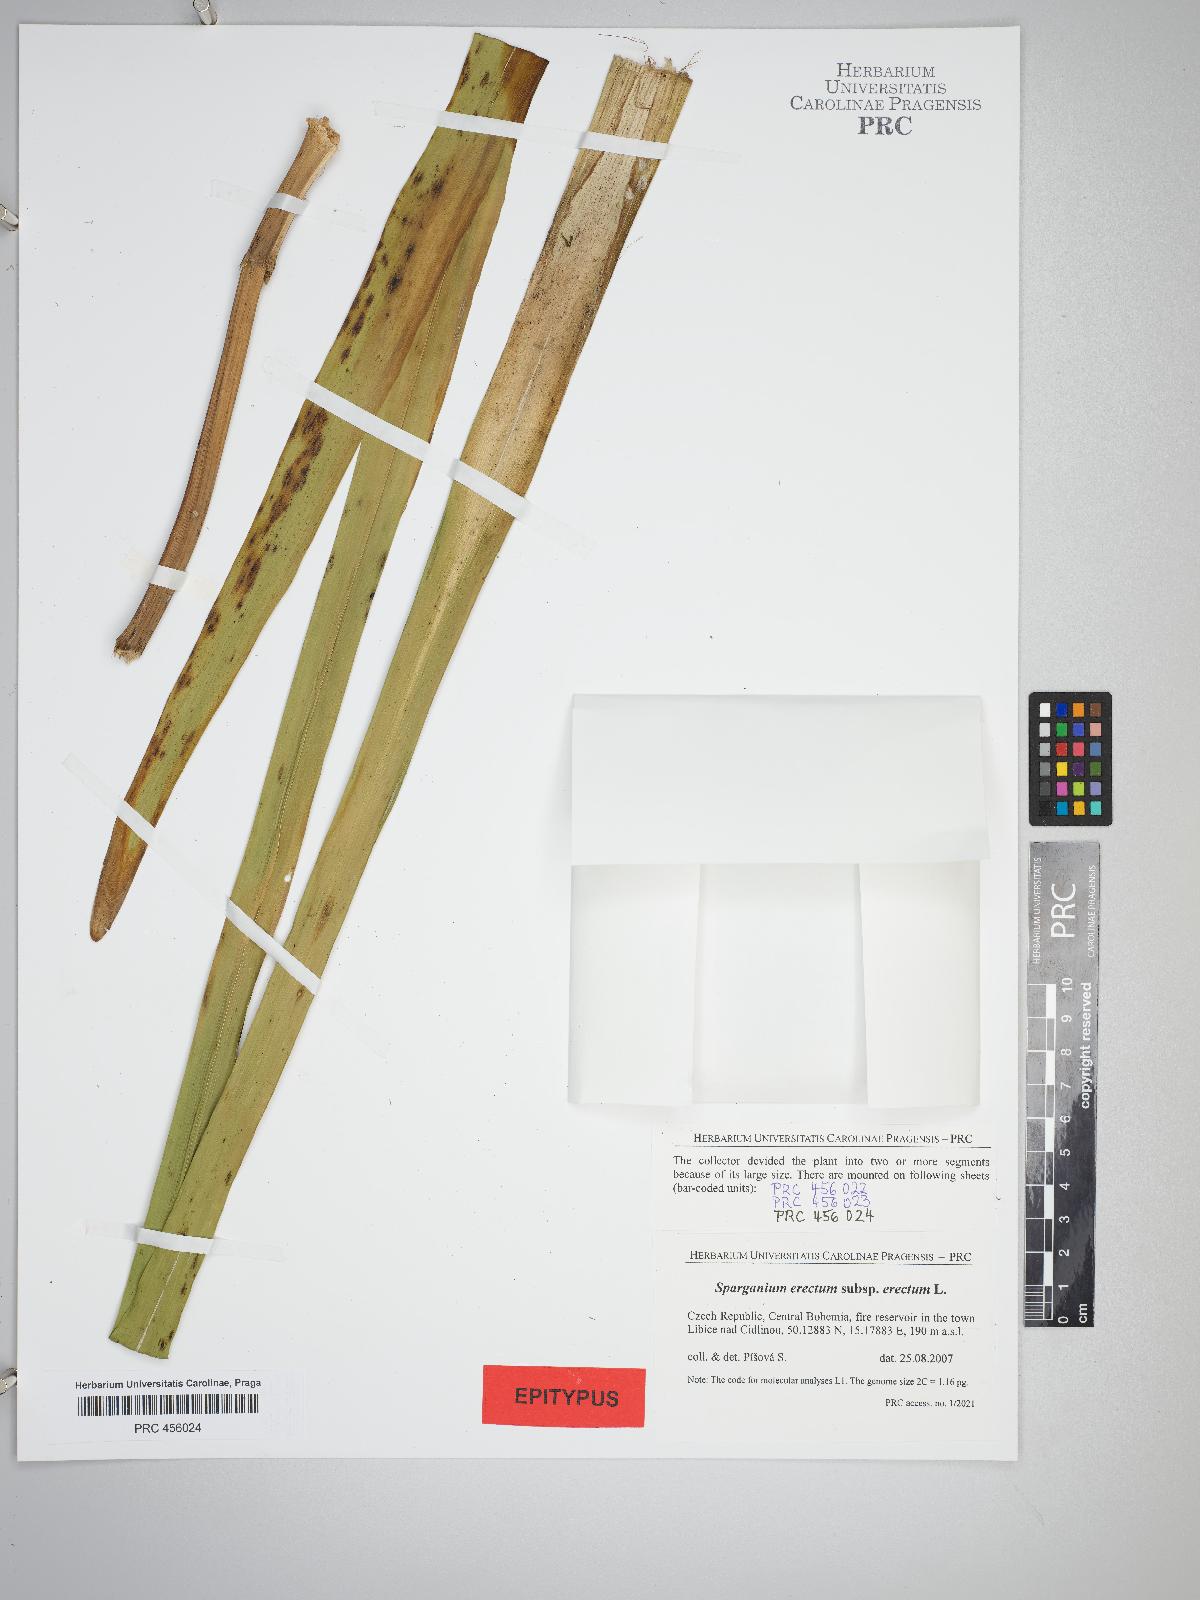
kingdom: Plantae
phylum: Tracheophyta
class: Liliopsida
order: Poales
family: Typhaceae
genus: Sparganium
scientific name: Sparganium erectum
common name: Branched bur-reed
